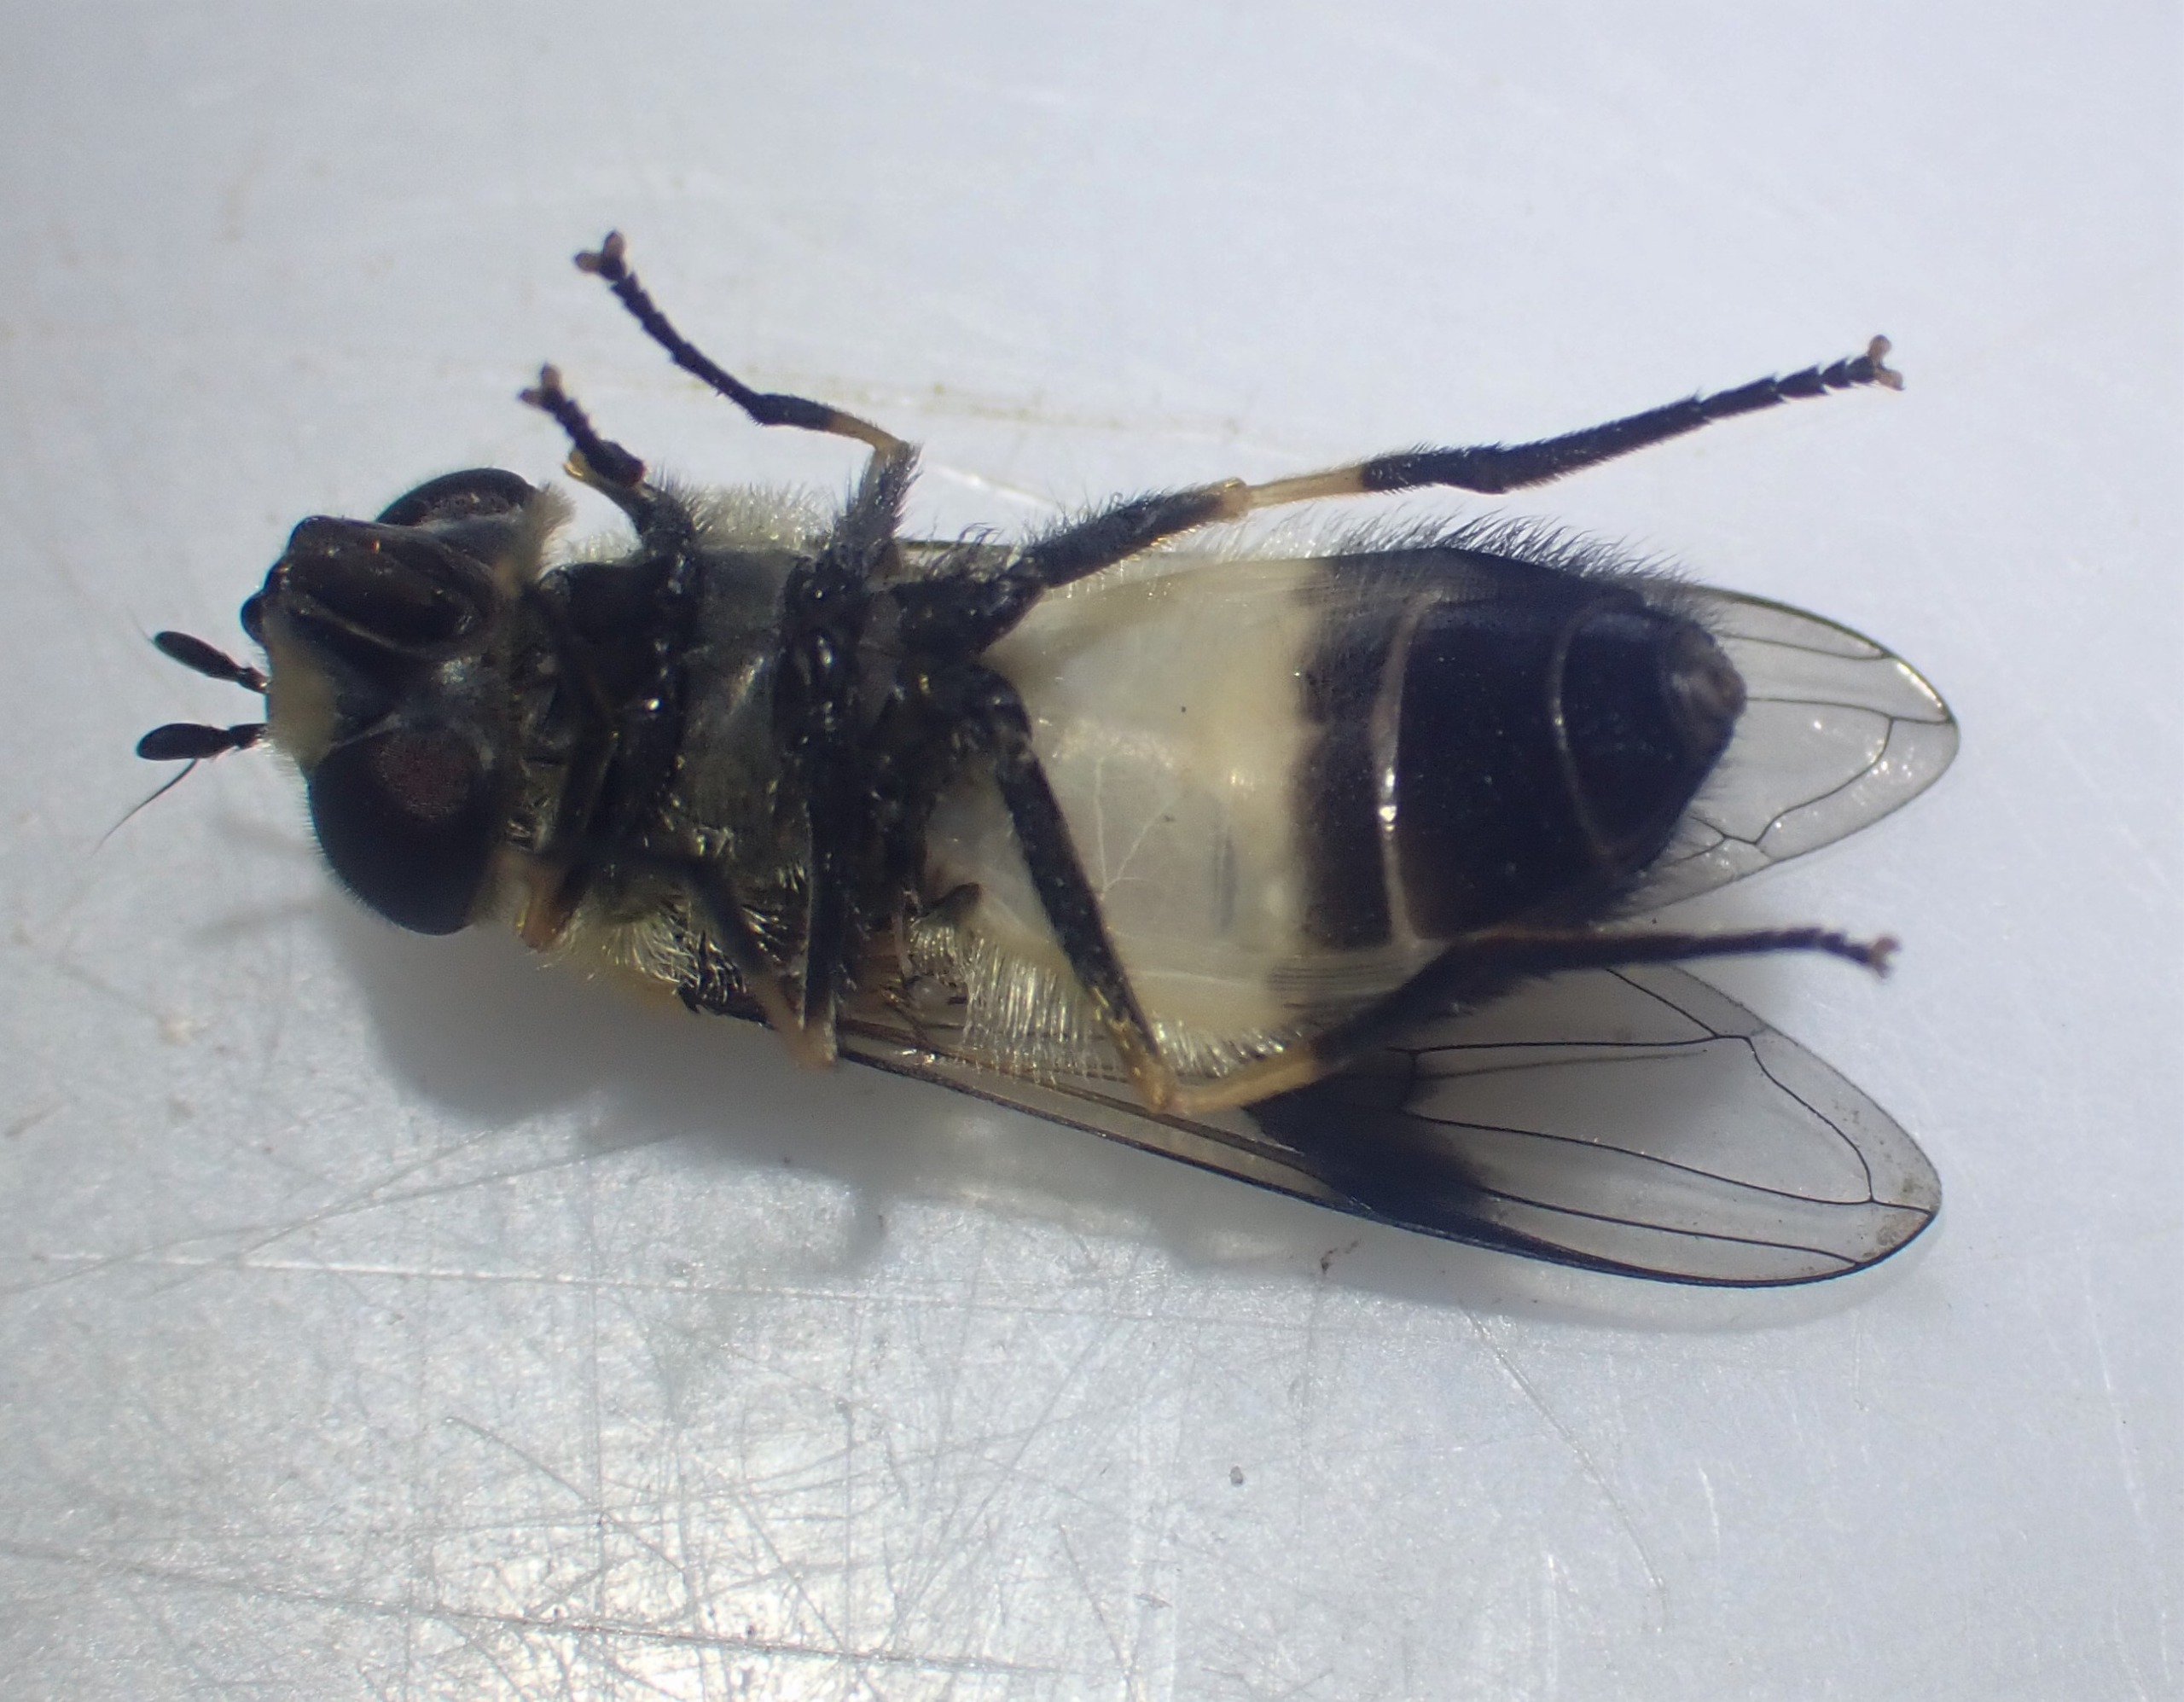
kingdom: Animalia
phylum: Arthropoda
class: Insecta
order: Diptera
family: Syrphidae
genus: Leucozona
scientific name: Leucozona inopinata
